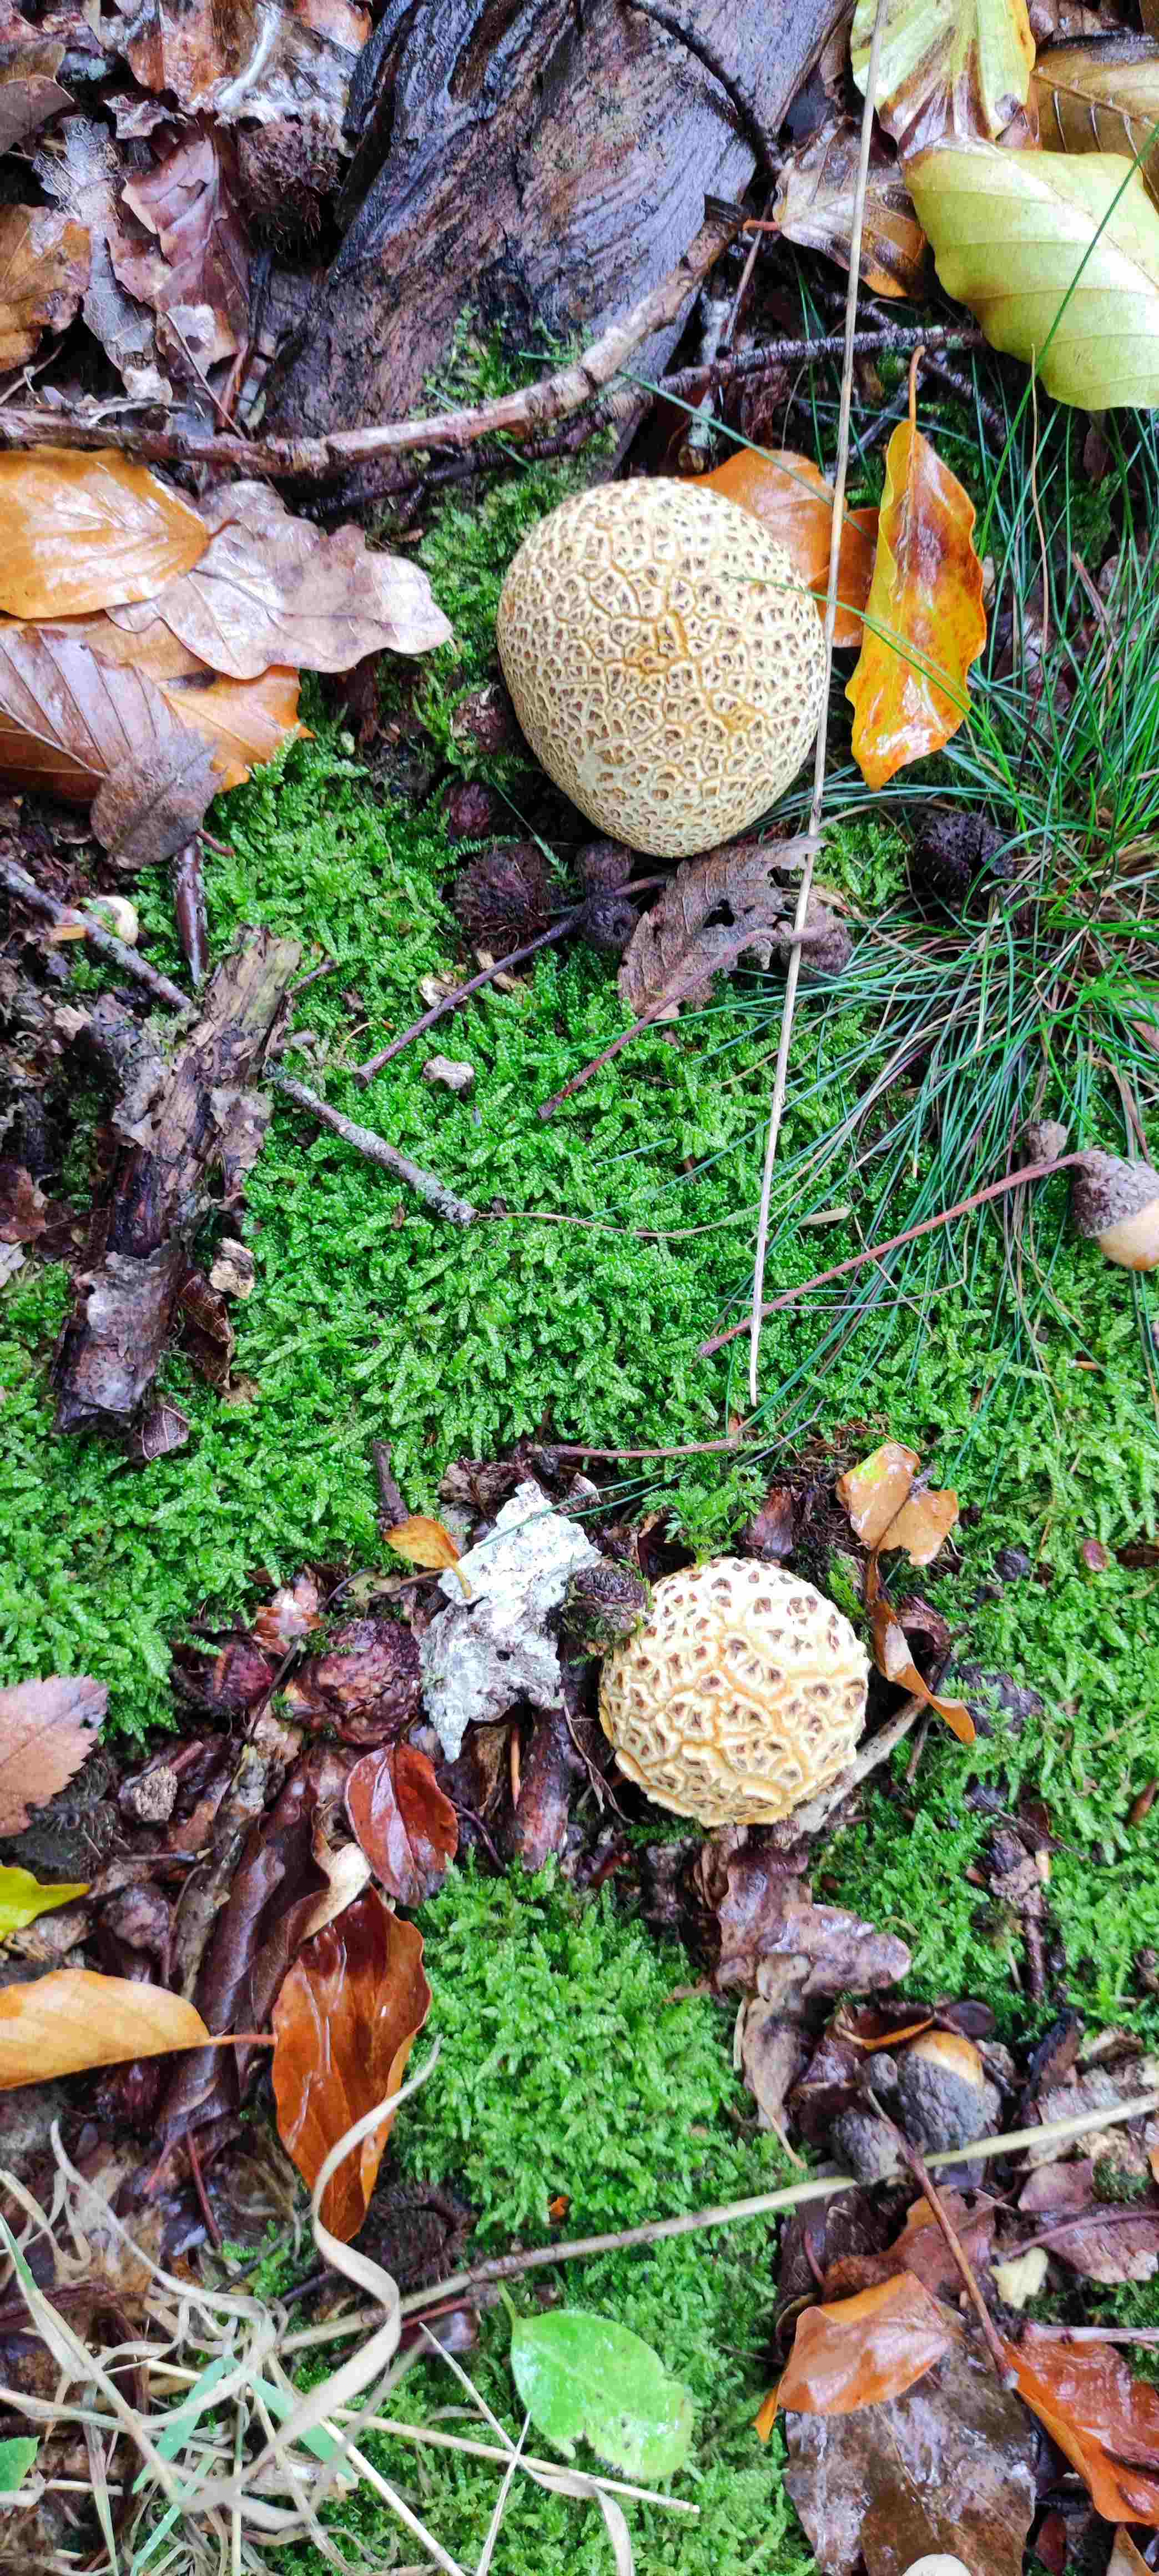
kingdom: Fungi
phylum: Basidiomycota
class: Agaricomycetes
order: Boletales
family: Sclerodermataceae
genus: Scleroderma
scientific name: Scleroderma citrinum
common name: almindelig bruskbold
